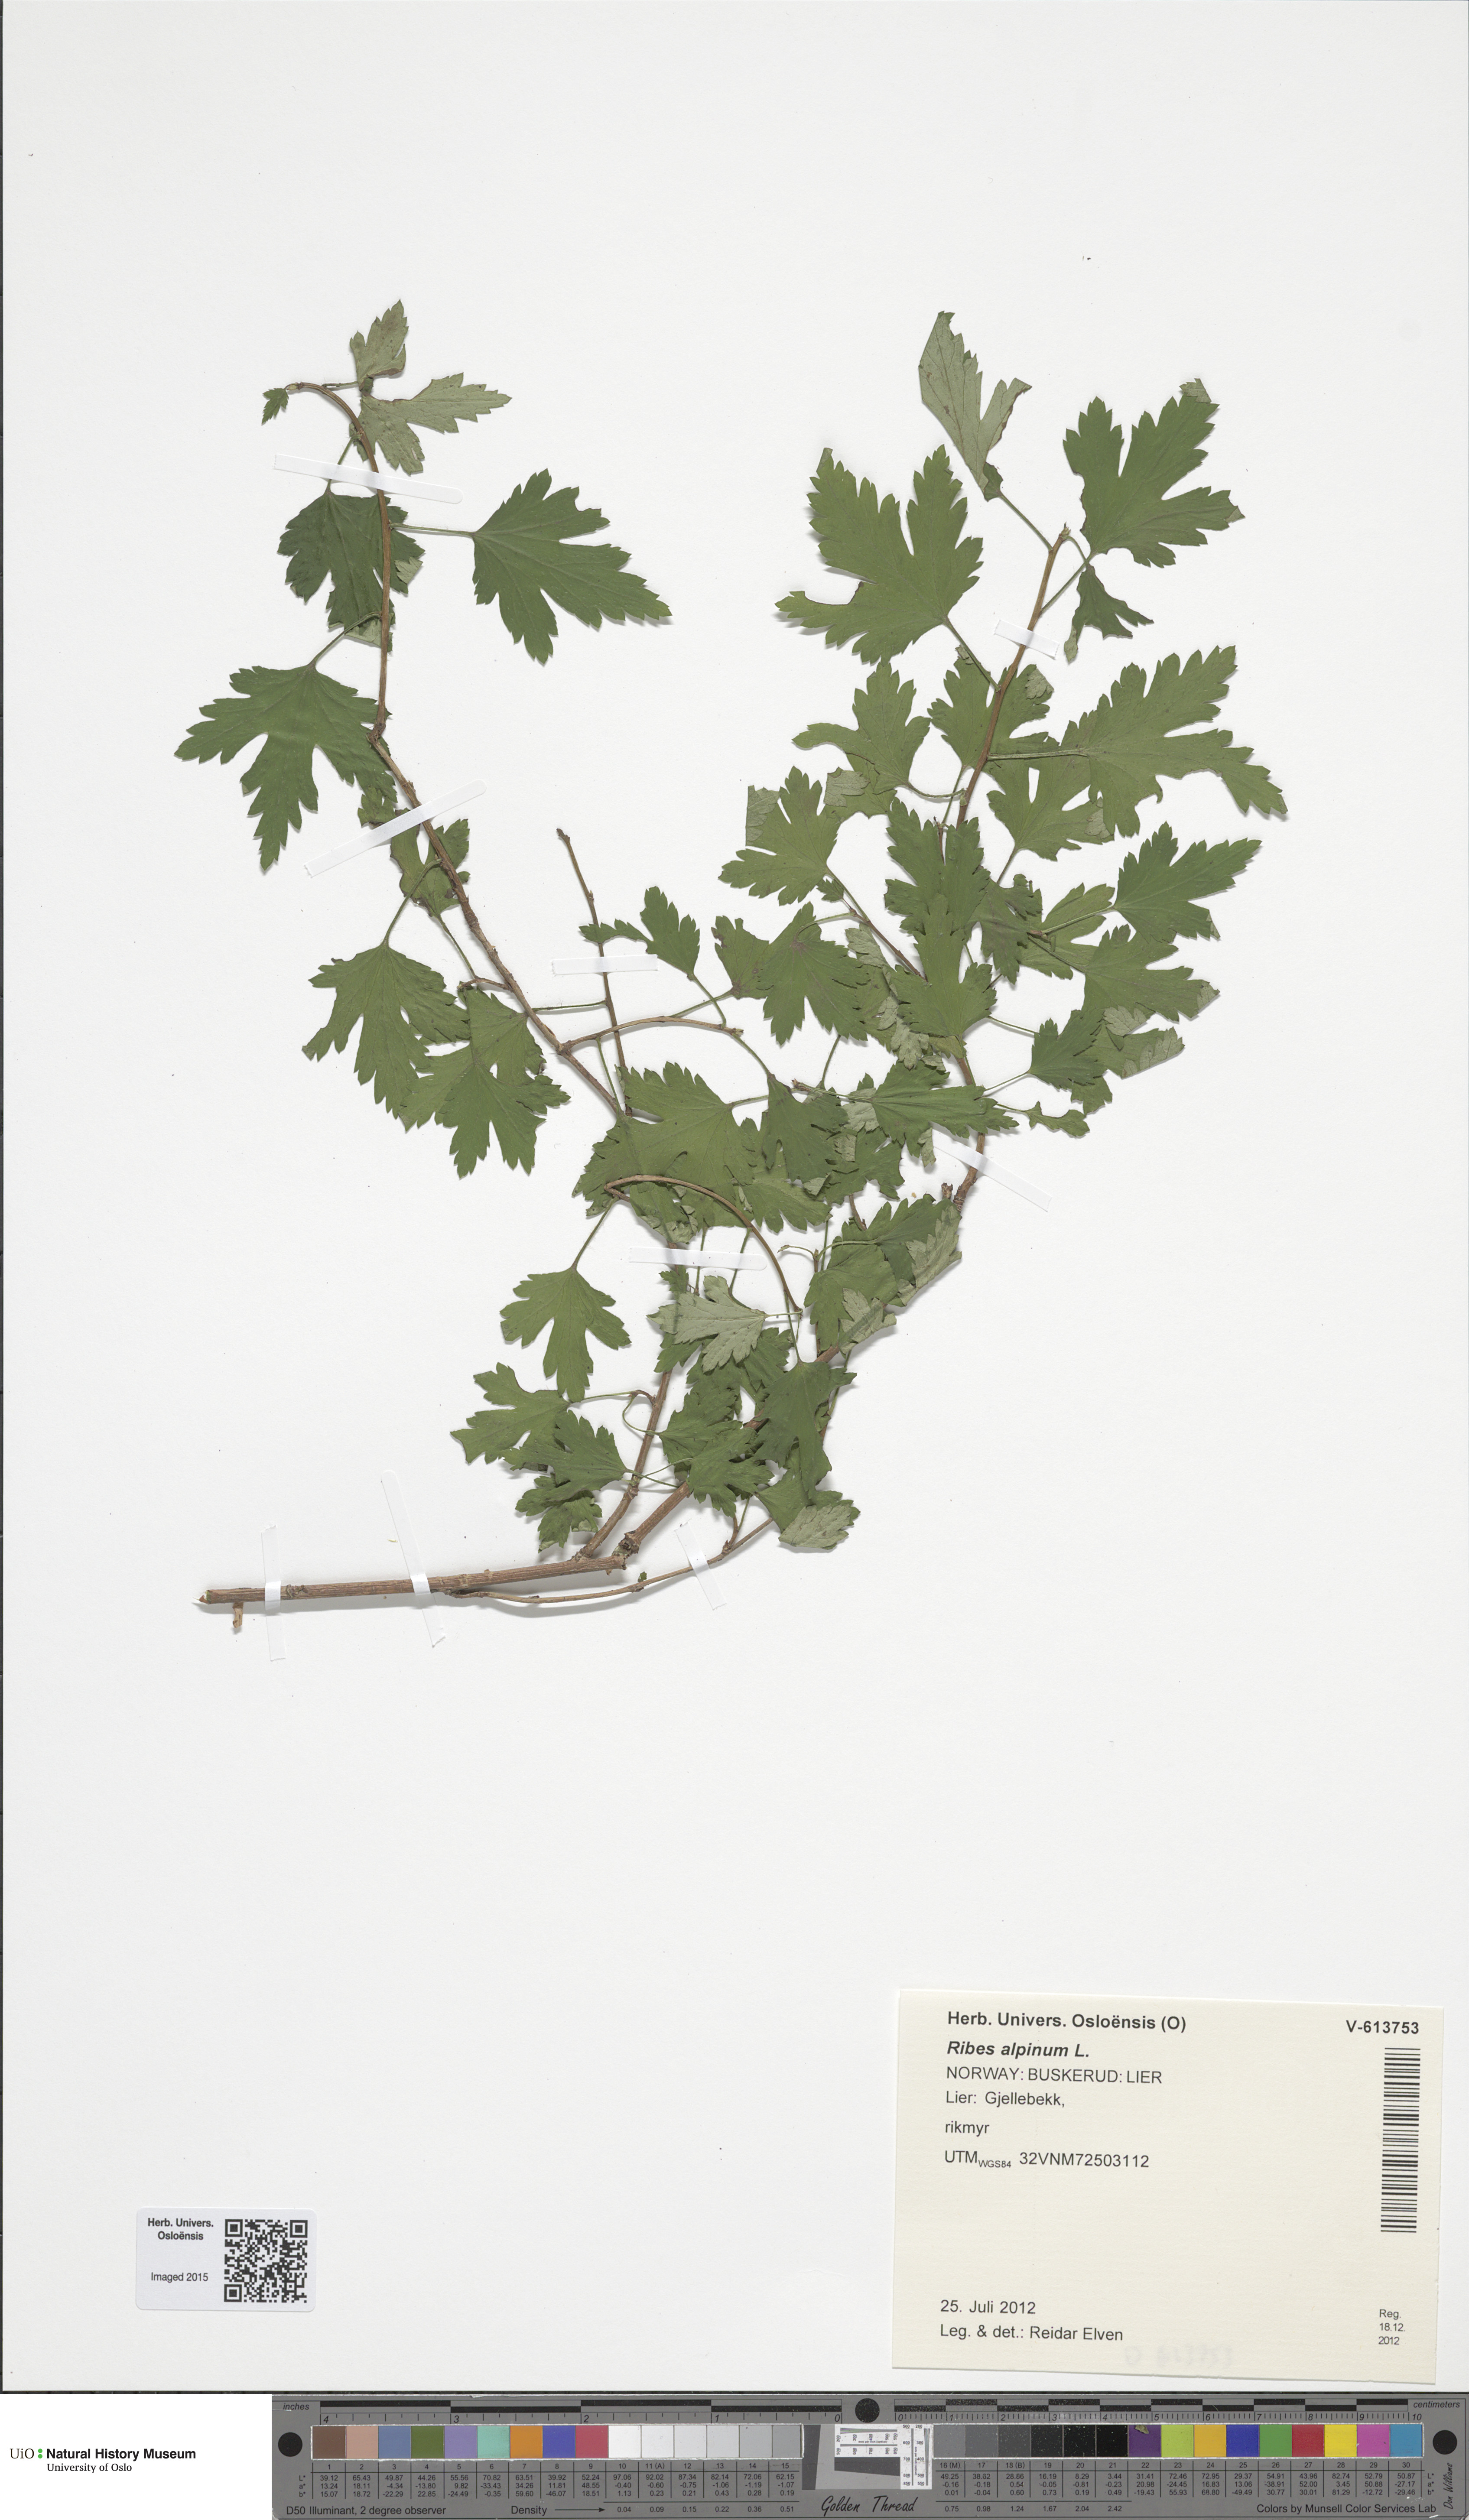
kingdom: Plantae
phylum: Tracheophyta
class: Magnoliopsida
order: Saxifragales
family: Grossulariaceae
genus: Ribes
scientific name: Ribes alpinum
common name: Alpine currant
